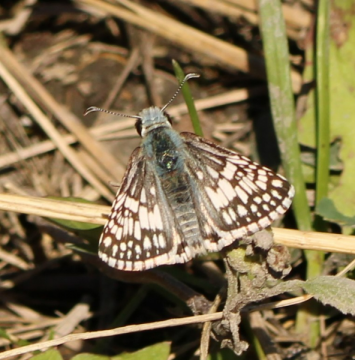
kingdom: Animalia
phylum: Arthropoda
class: Insecta
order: Lepidoptera
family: Hesperiidae
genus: Pyrgus
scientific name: Pyrgus communis
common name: Common Checkered-Skipper
